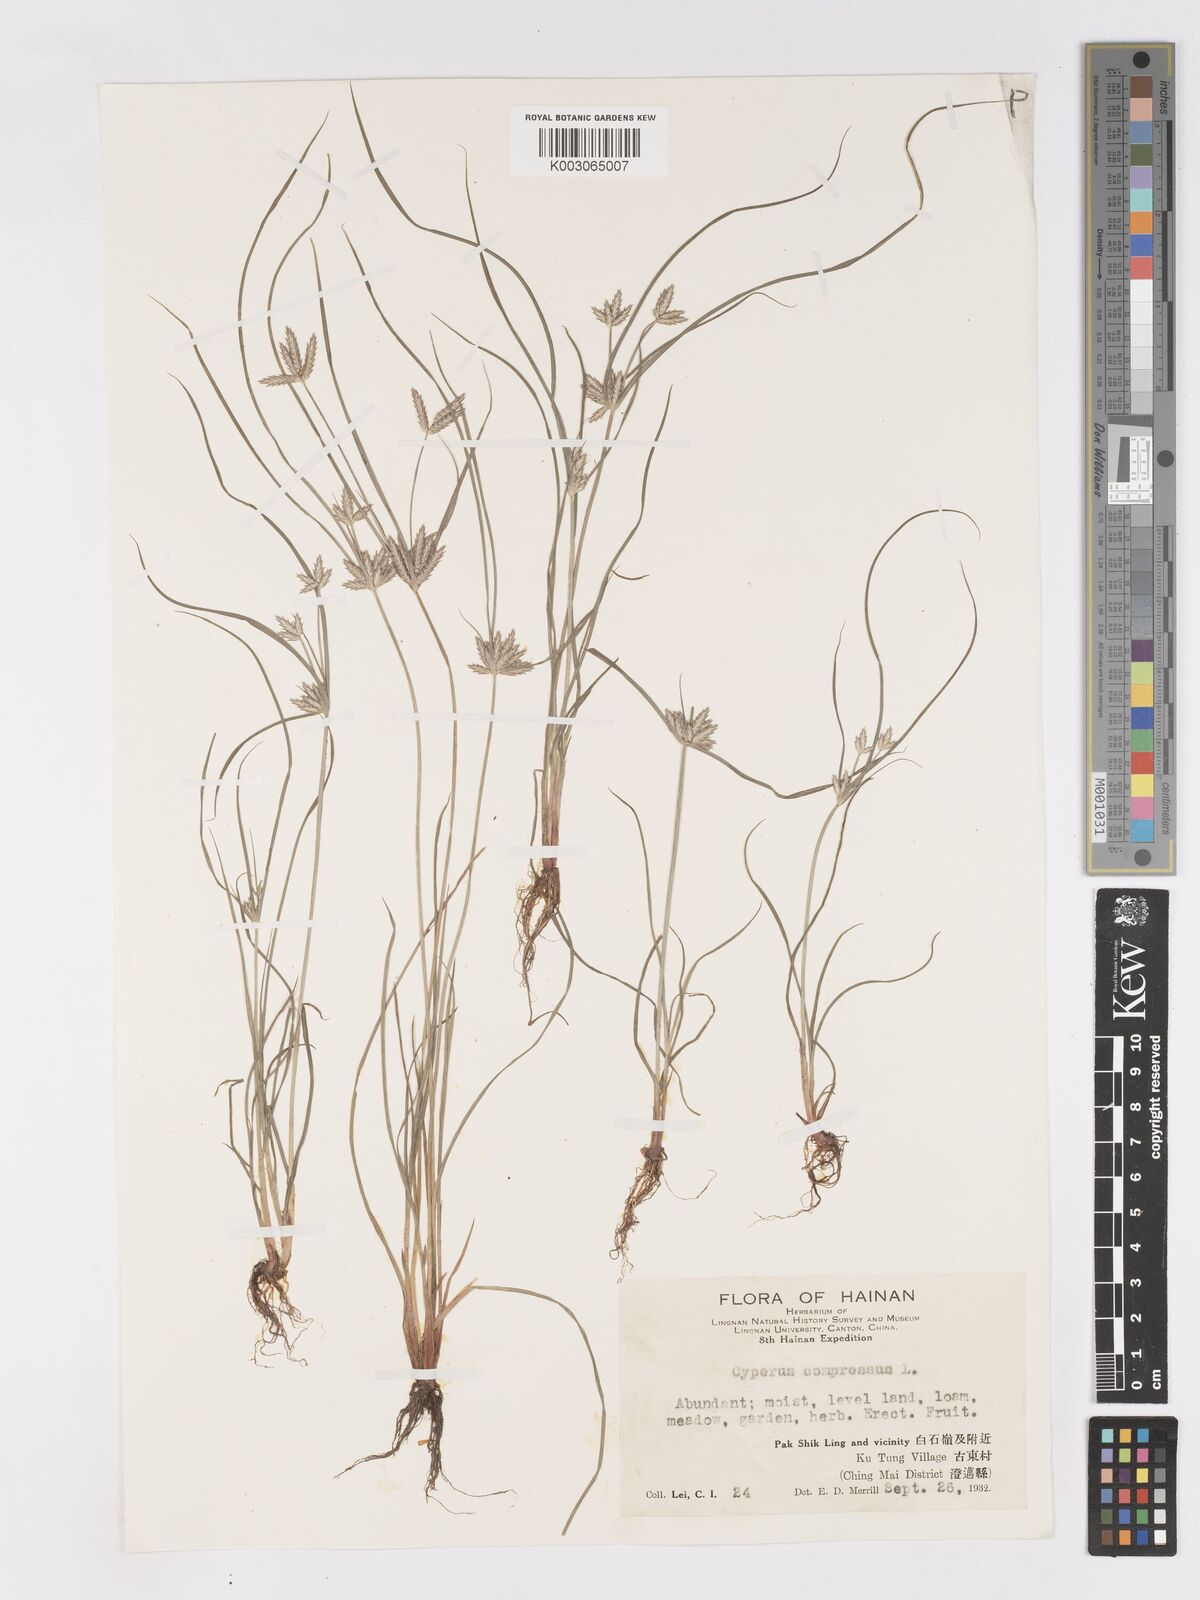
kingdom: Plantae
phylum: Tracheophyta
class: Liliopsida
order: Poales
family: Cyperaceae
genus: Cyperus
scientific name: Cyperus compressus
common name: Poorland flatsedge
